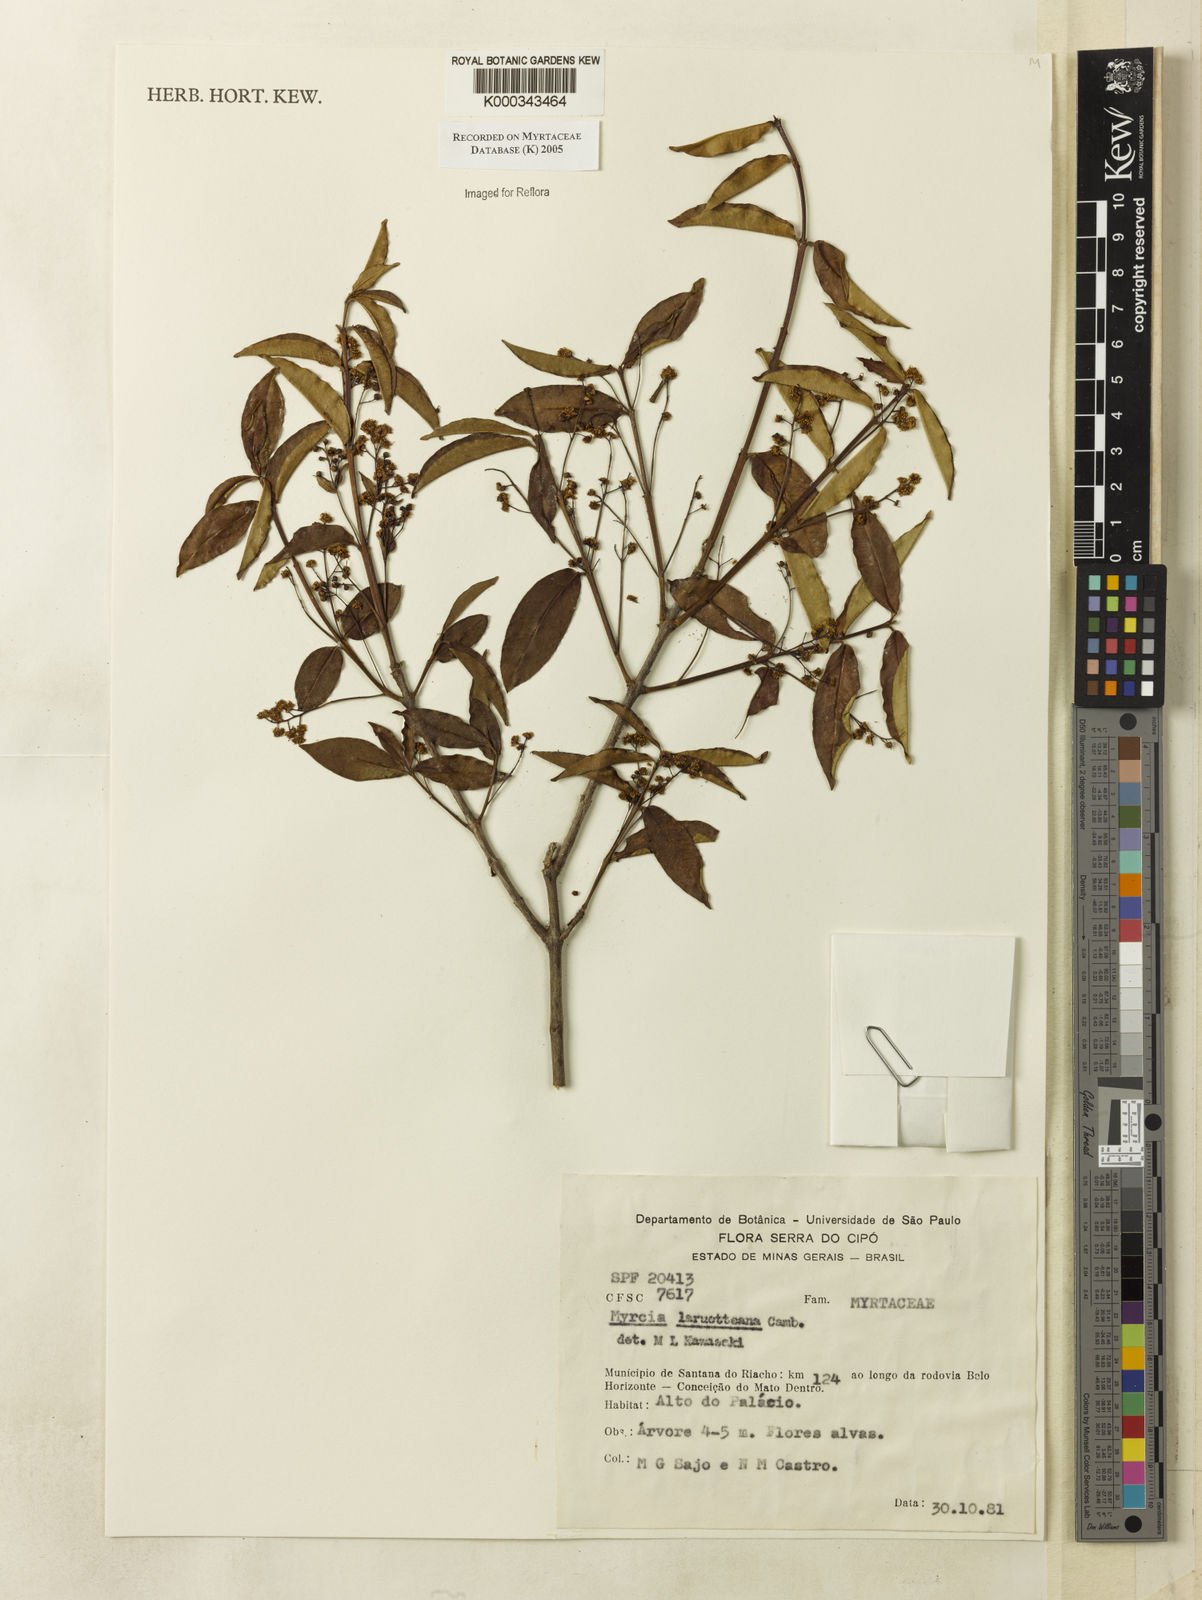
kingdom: Plantae
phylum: Tracheophyta
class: Magnoliopsida
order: Myrtales
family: Myrtaceae
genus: Myrcia
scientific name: Myrcia laruotteana
